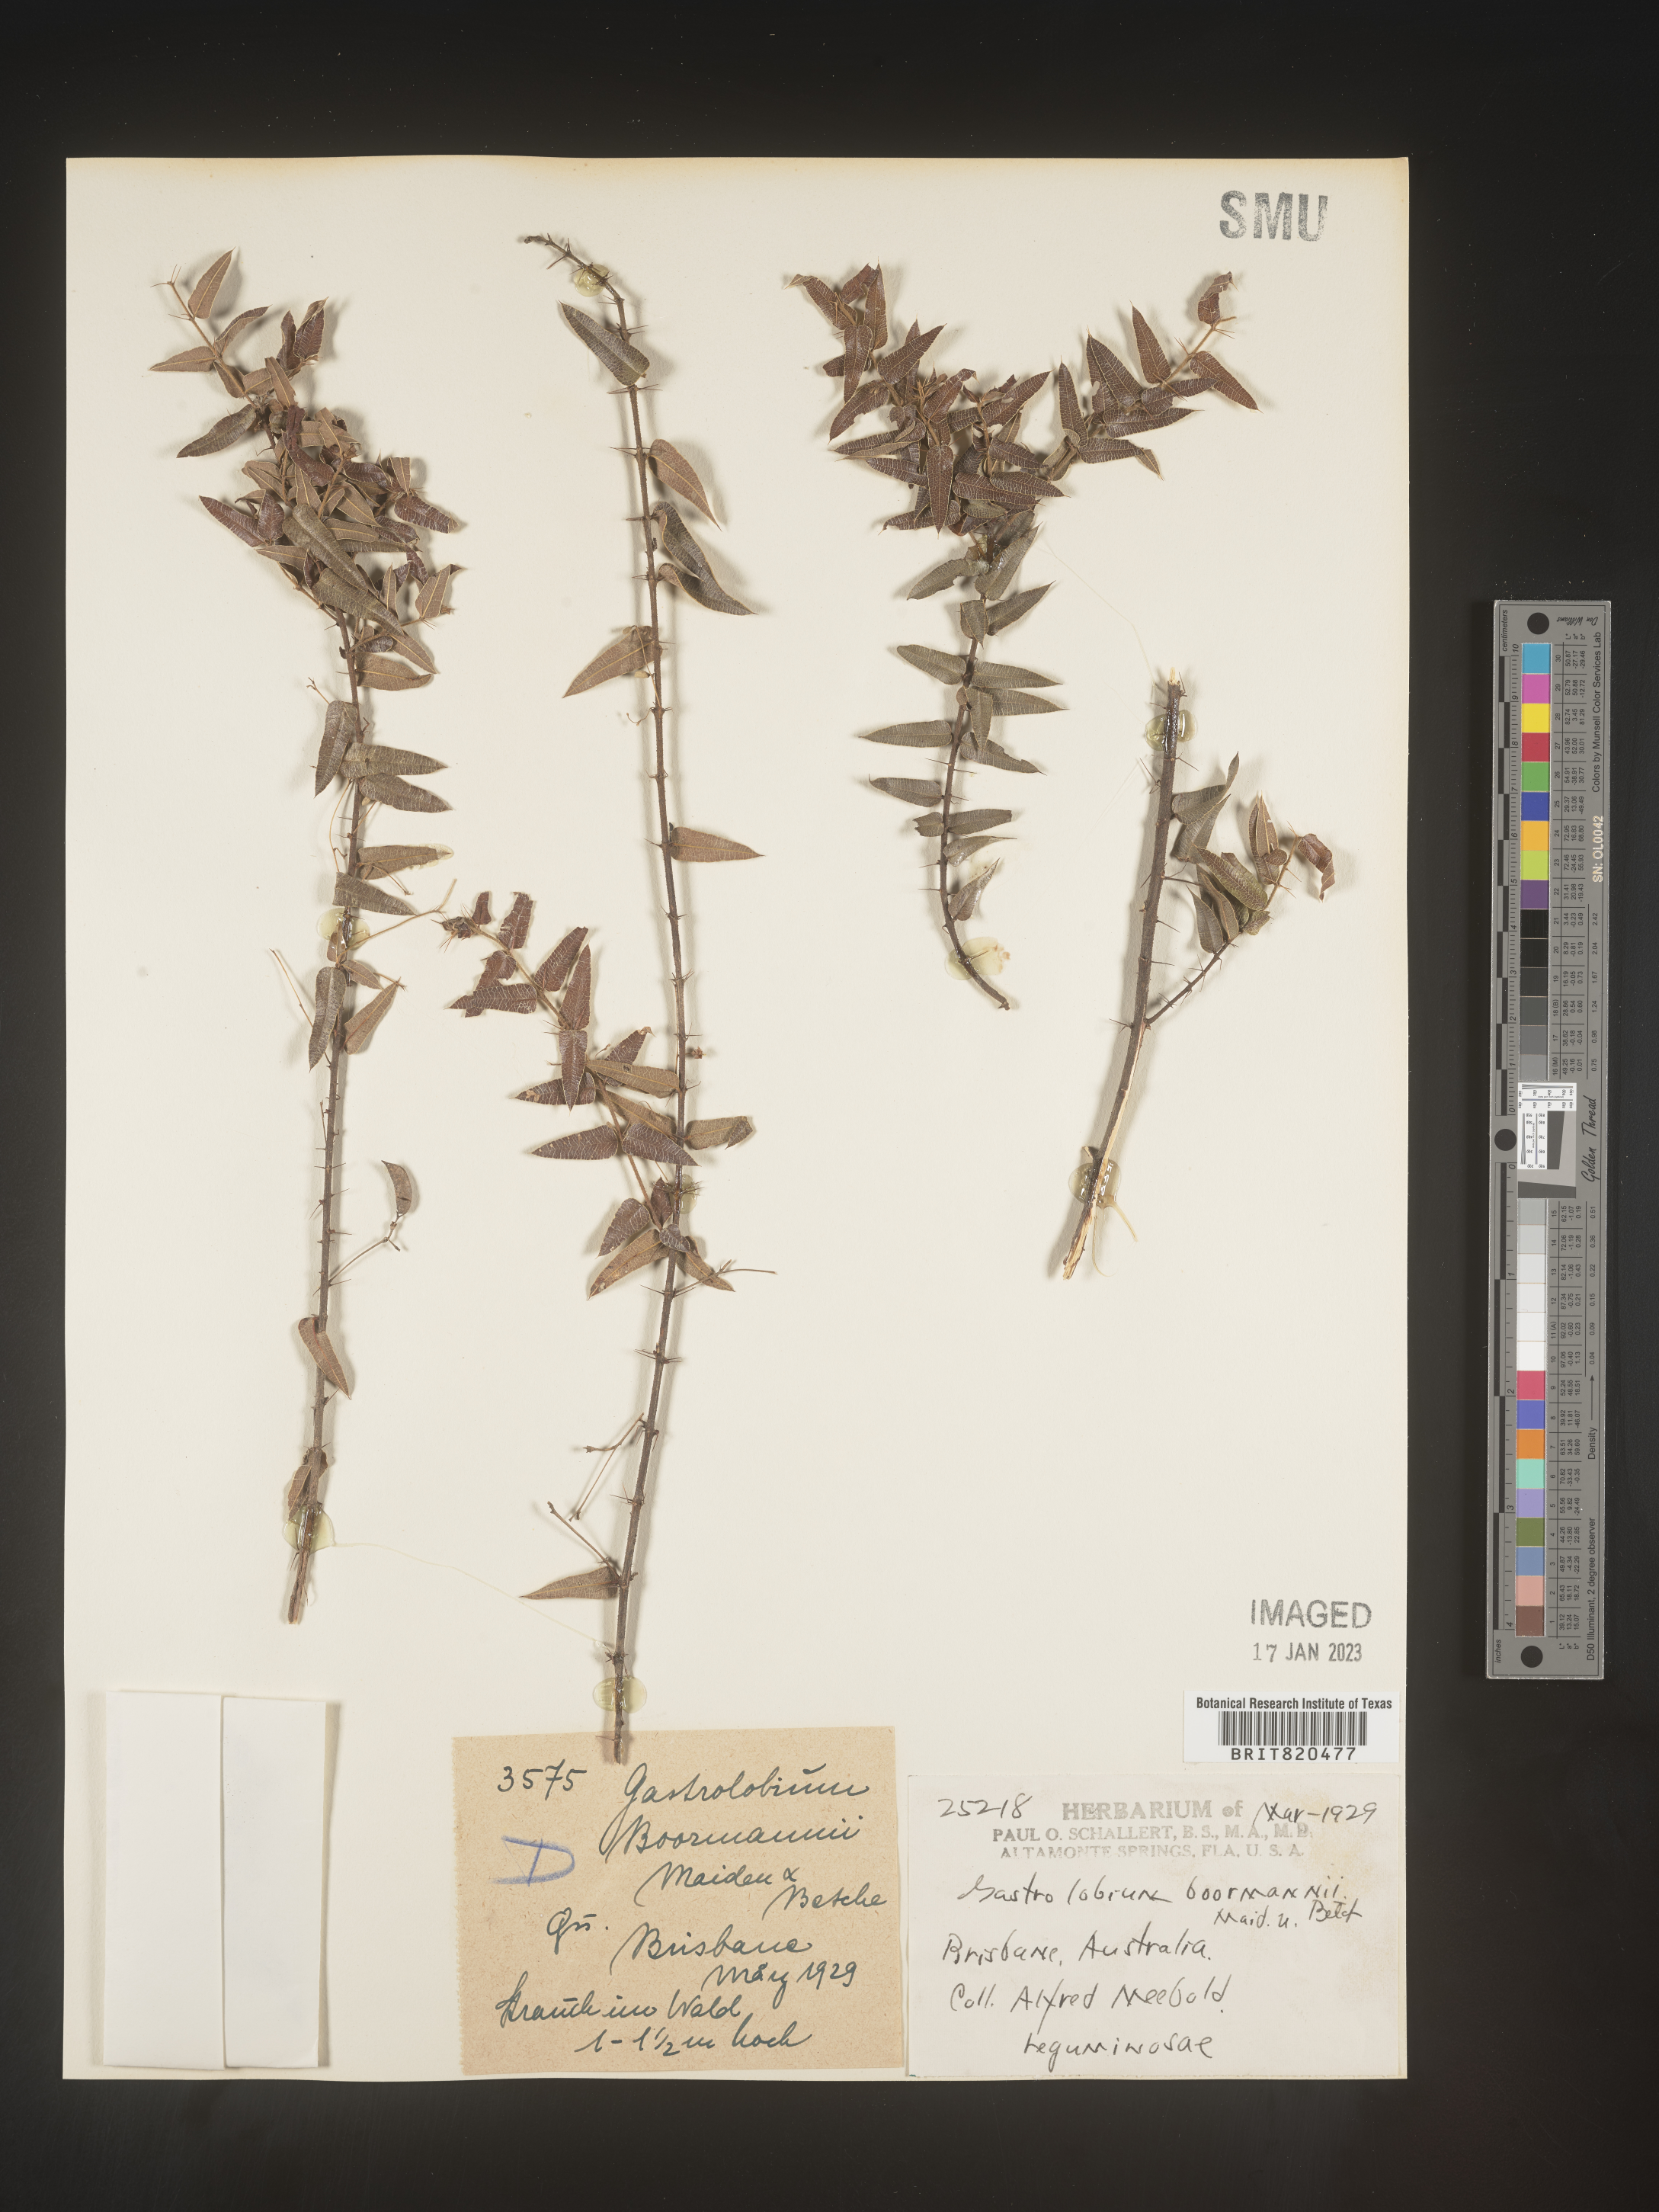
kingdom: Plantae
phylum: Tracheophyta
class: Magnoliopsida
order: Fabales
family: Fabaceae
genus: Gastrolobium
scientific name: Gastrolobium
